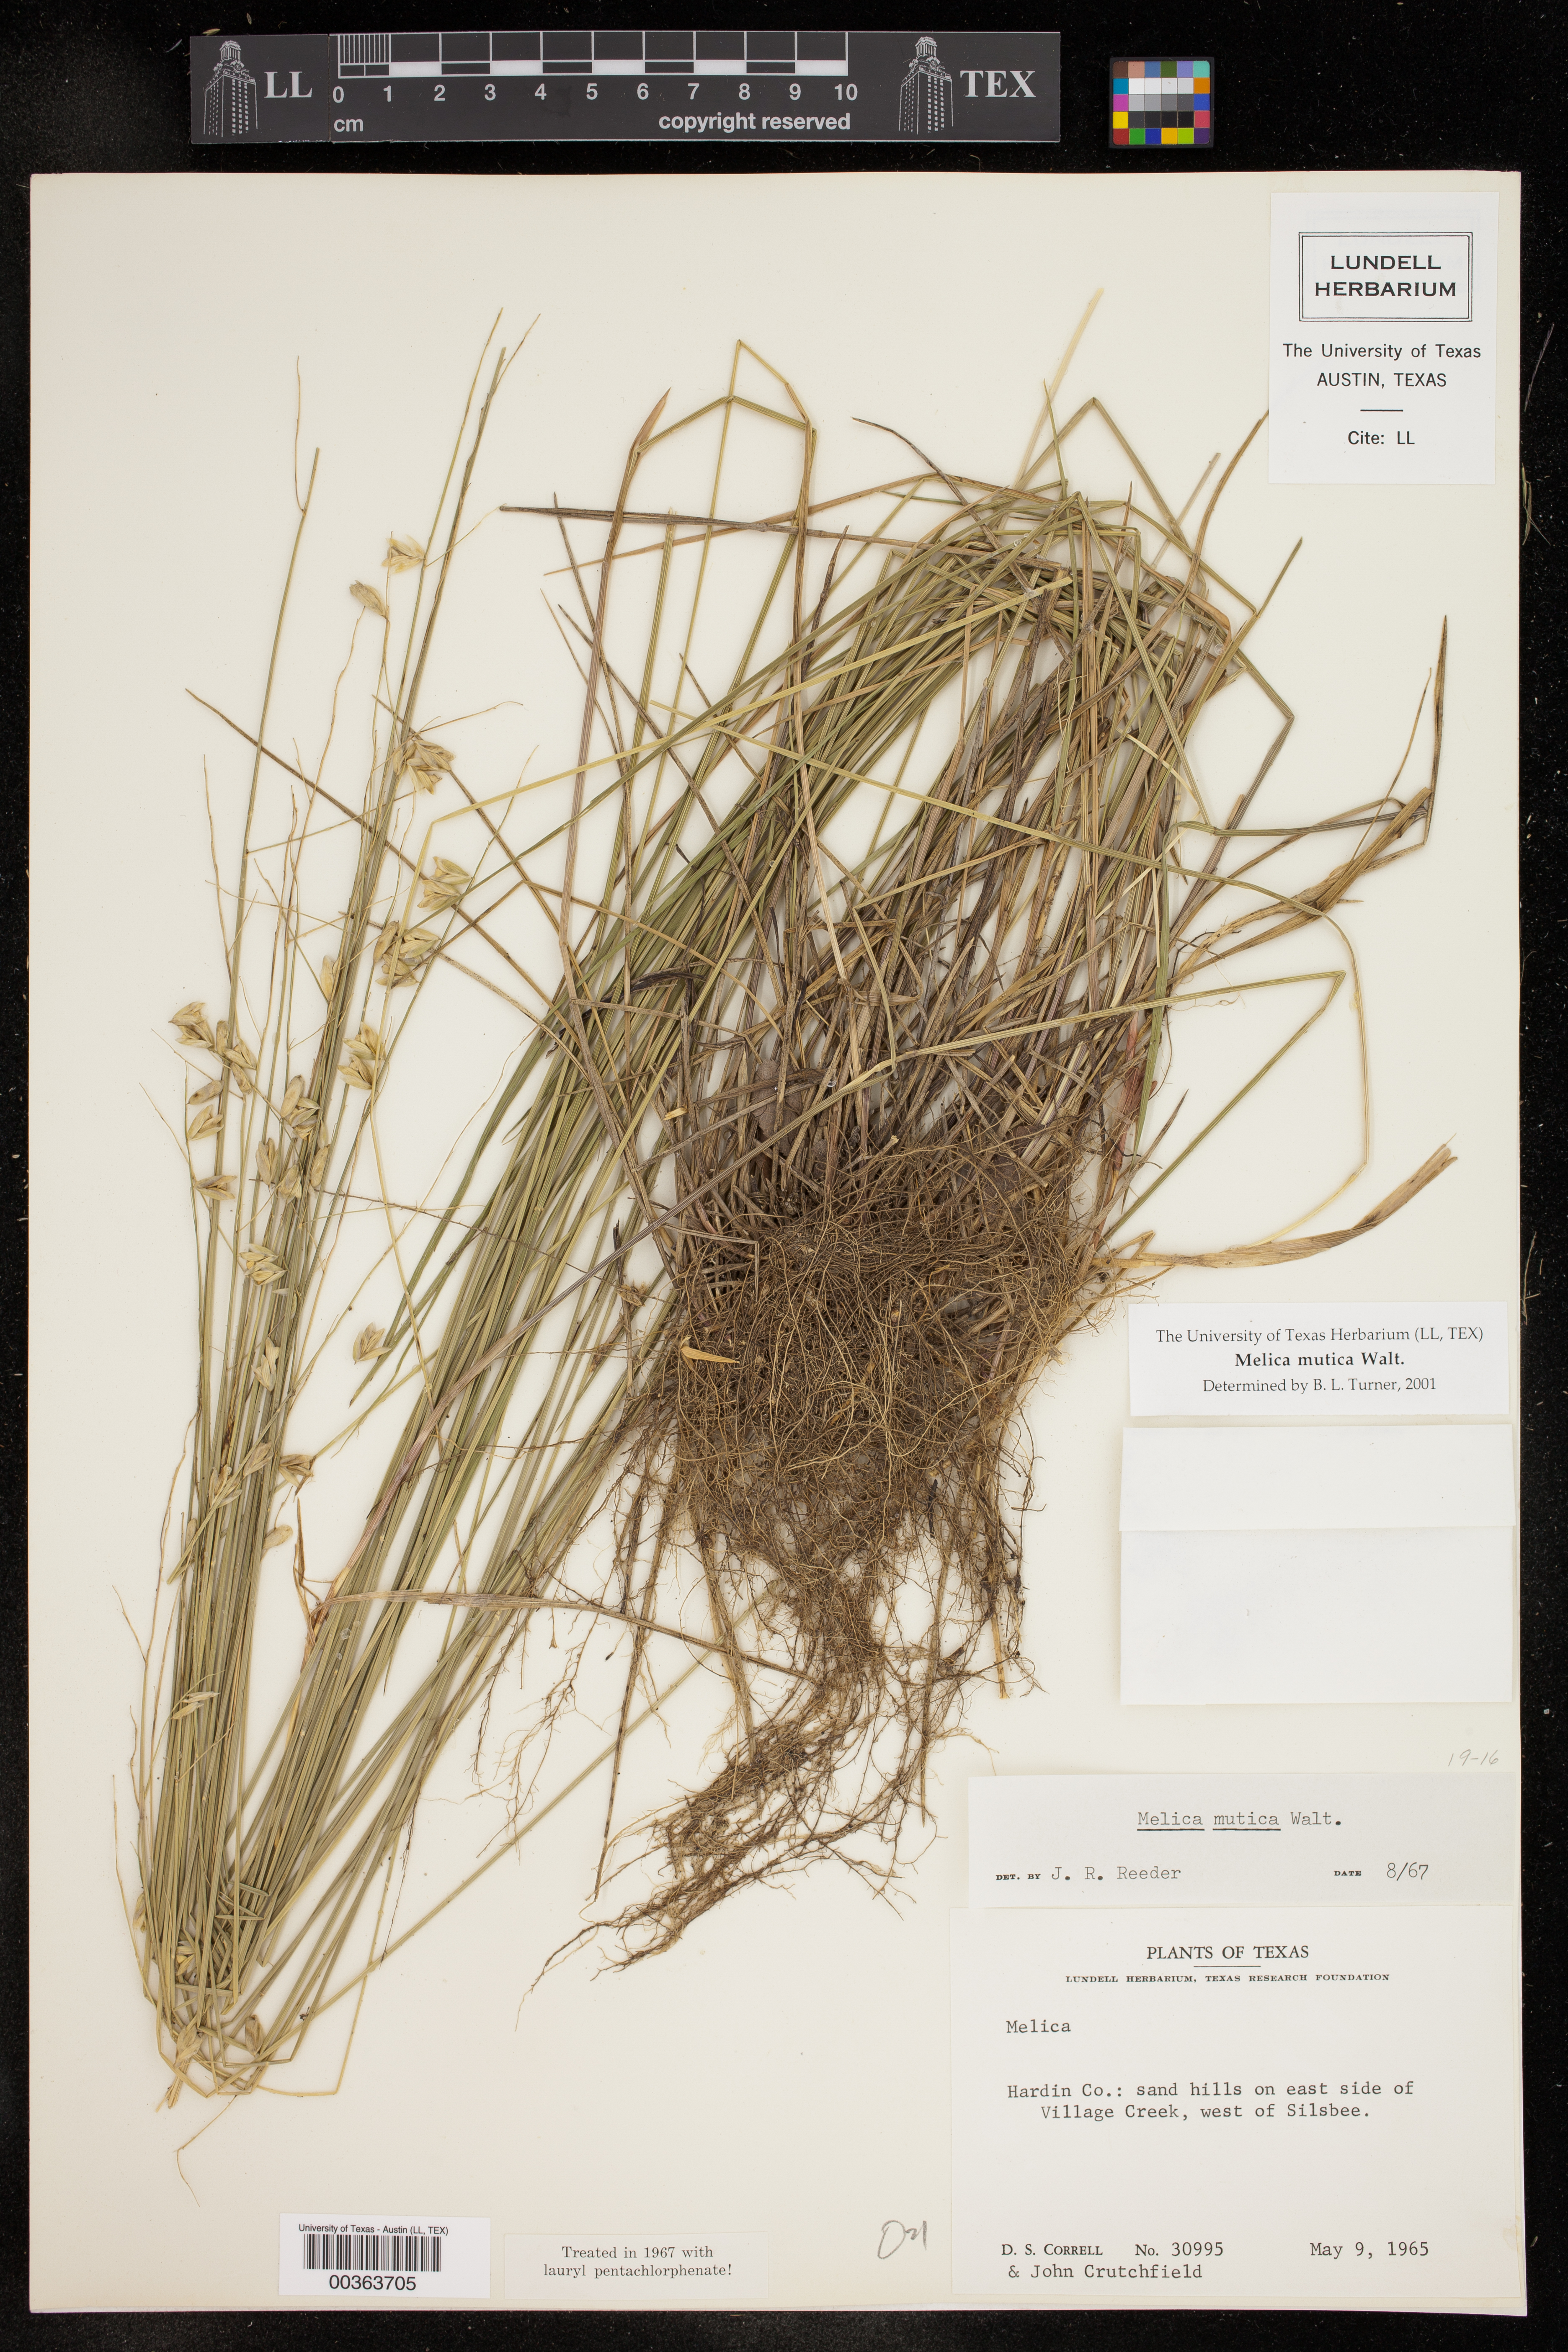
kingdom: Plantae
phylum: Tracheophyta
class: Liliopsida
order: Poales
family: Poaceae
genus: Melica
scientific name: Melica mutica
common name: Two-flower melic
